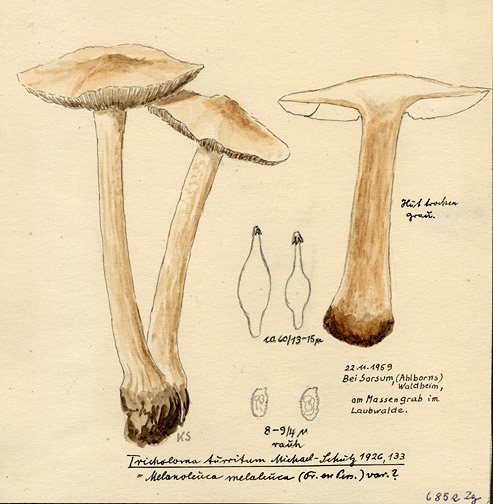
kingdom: Fungi
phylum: Basidiomycota
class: Agaricomycetes
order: Agaricales
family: Tricholomataceae
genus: Melanoleuca
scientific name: Melanoleuca turrita
